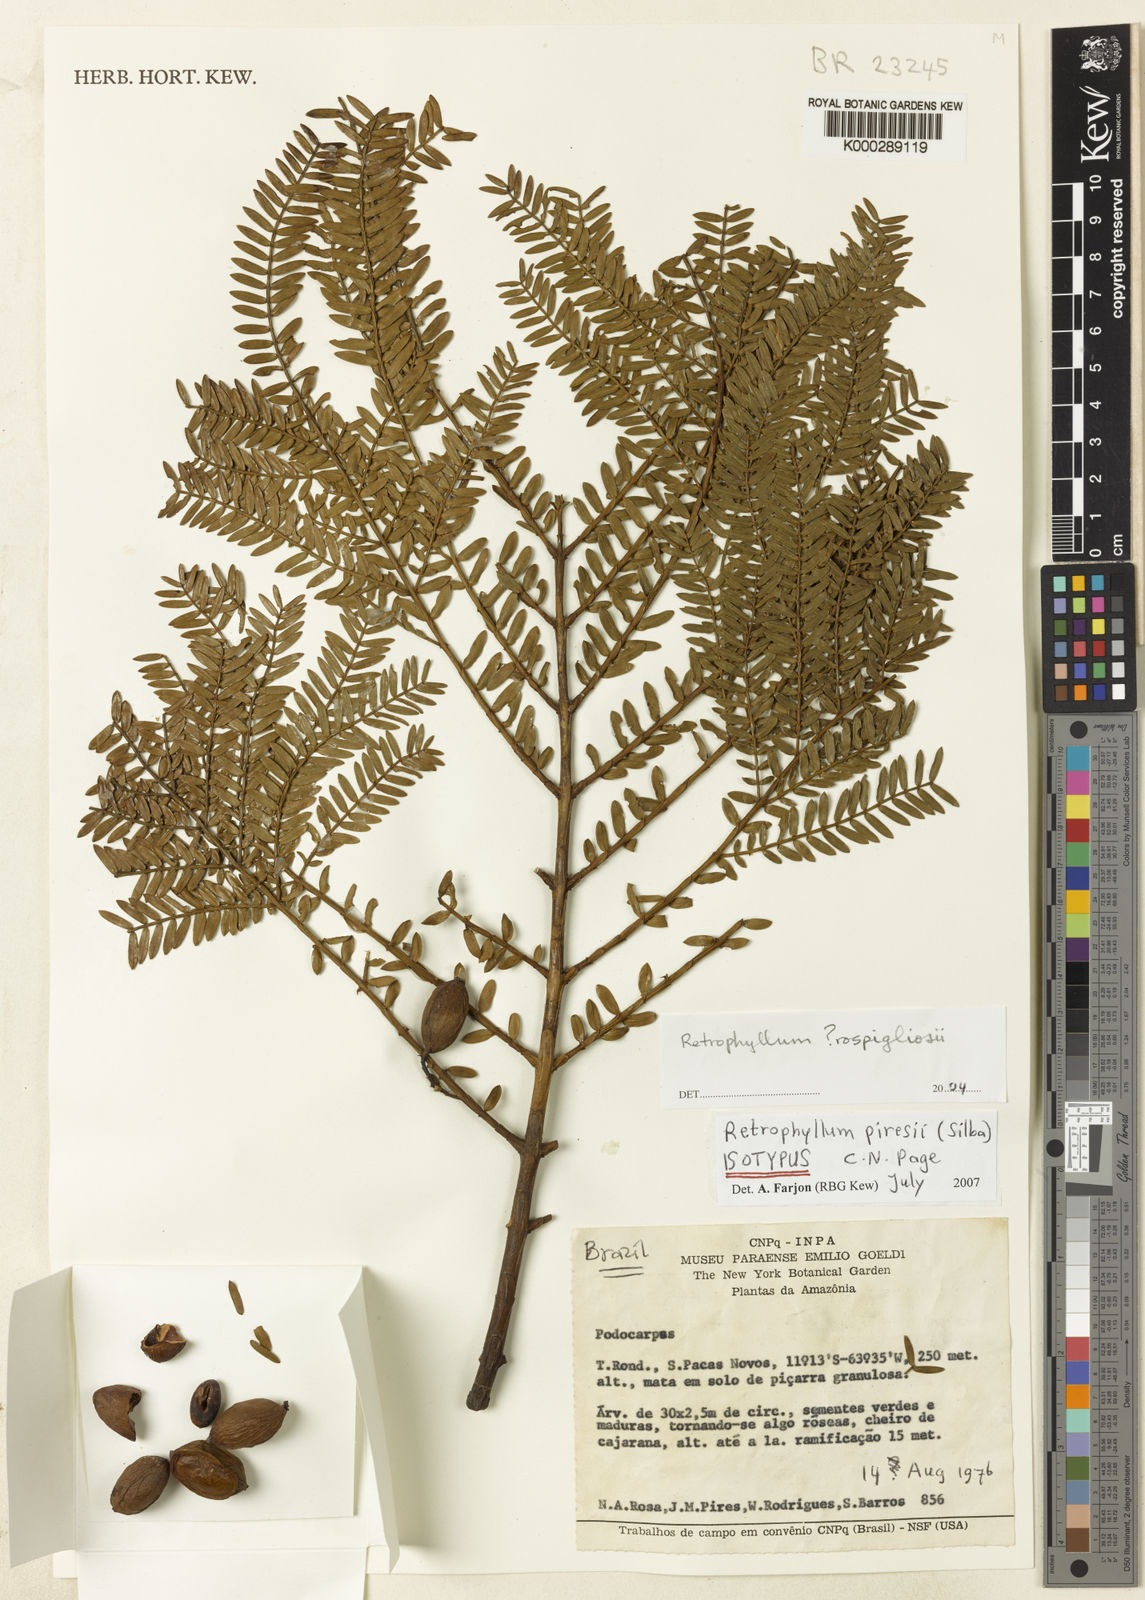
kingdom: Plantae
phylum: Tracheophyta
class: Pinopsida
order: Pinales
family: Podocarpaceae
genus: Retrophyllum
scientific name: Retrophyllum piresii
